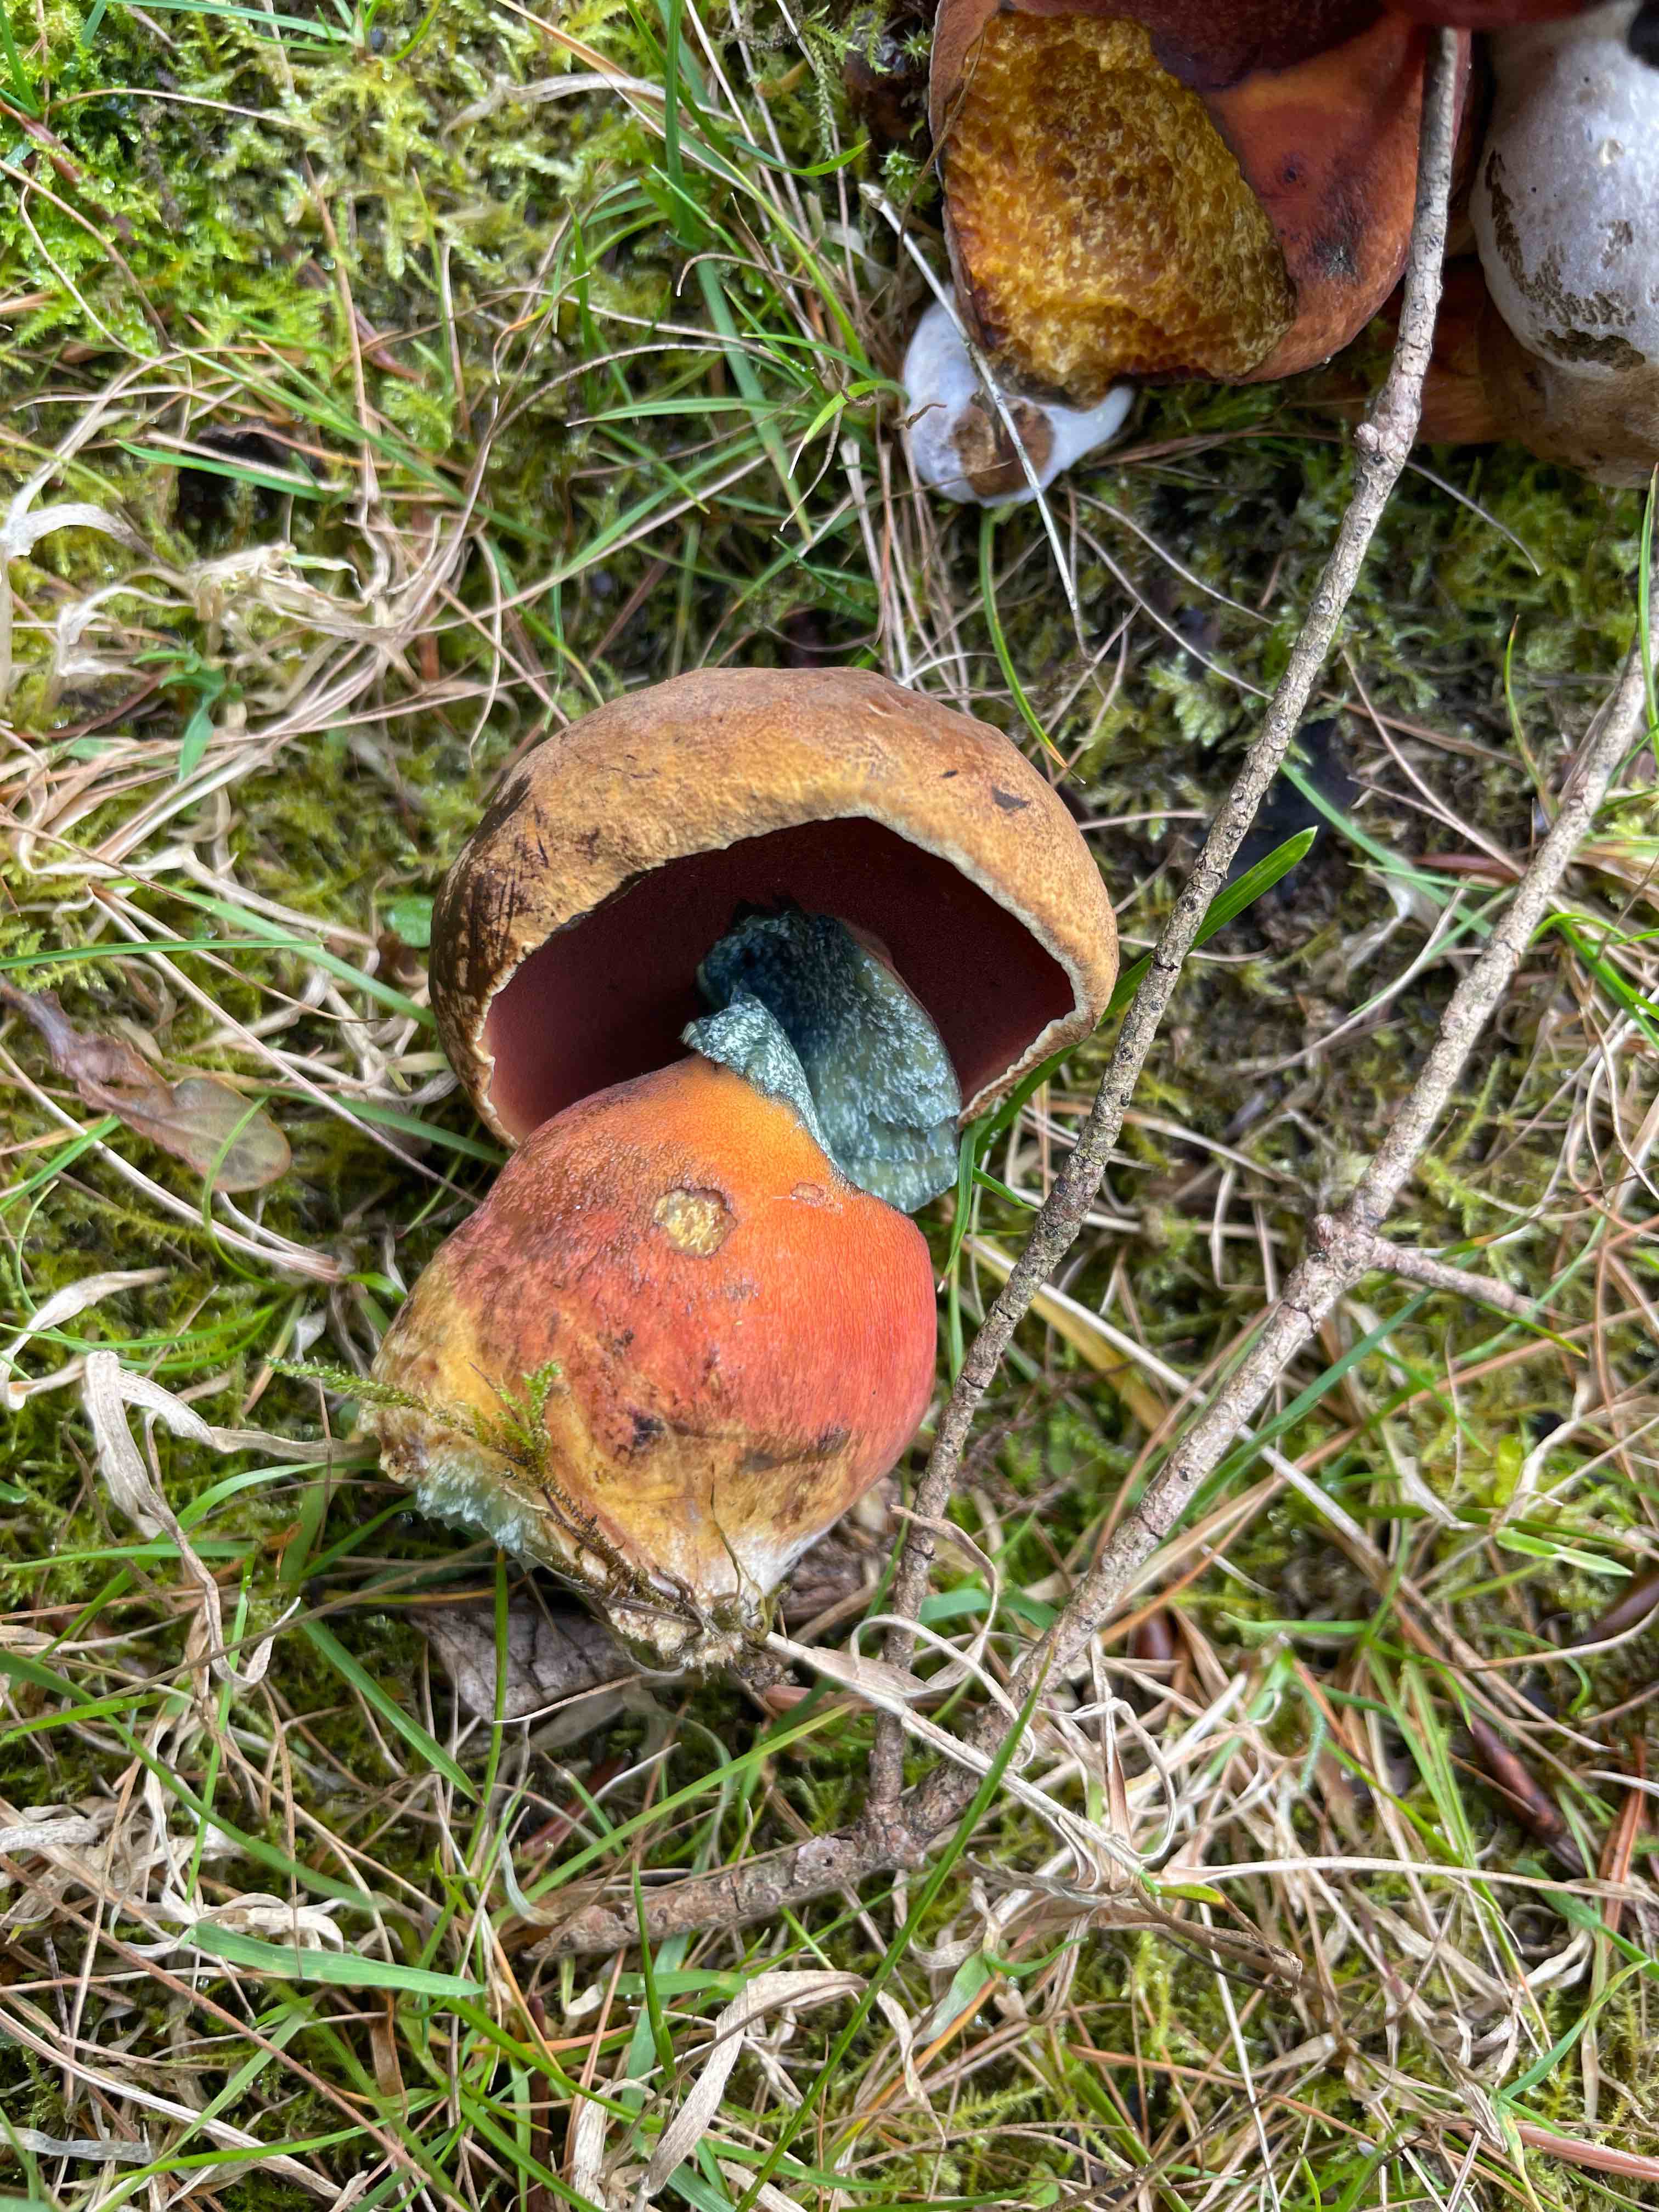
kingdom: Fungi
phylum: Basidiomycota
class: Agaricomycetes
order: Boletales
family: Boletaceae
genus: Neoboletus
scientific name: Neoboletus erythropus
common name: punktstokket indigorørhat
